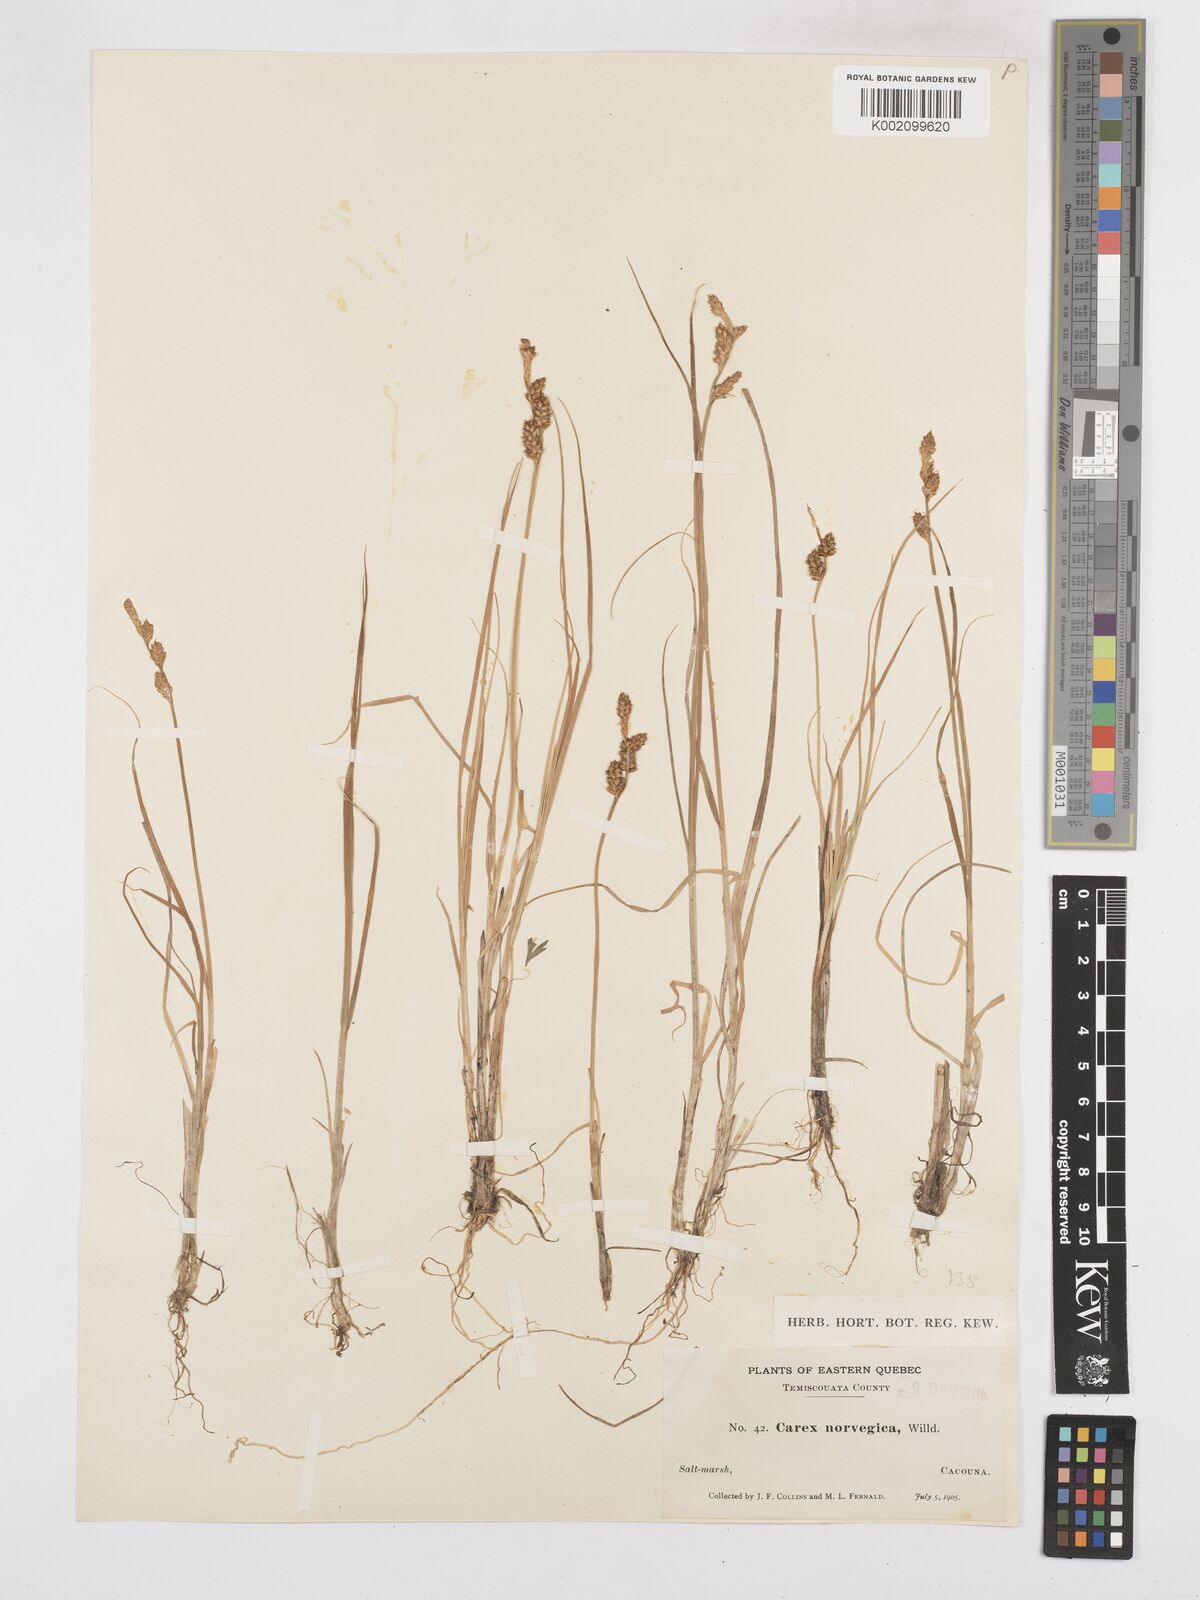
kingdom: Plantae
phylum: Tracheophyta
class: Liliopsida
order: Poales
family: Cyperaceae
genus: Carex
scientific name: Carex mackenziei
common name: Mackenzie's sedge
